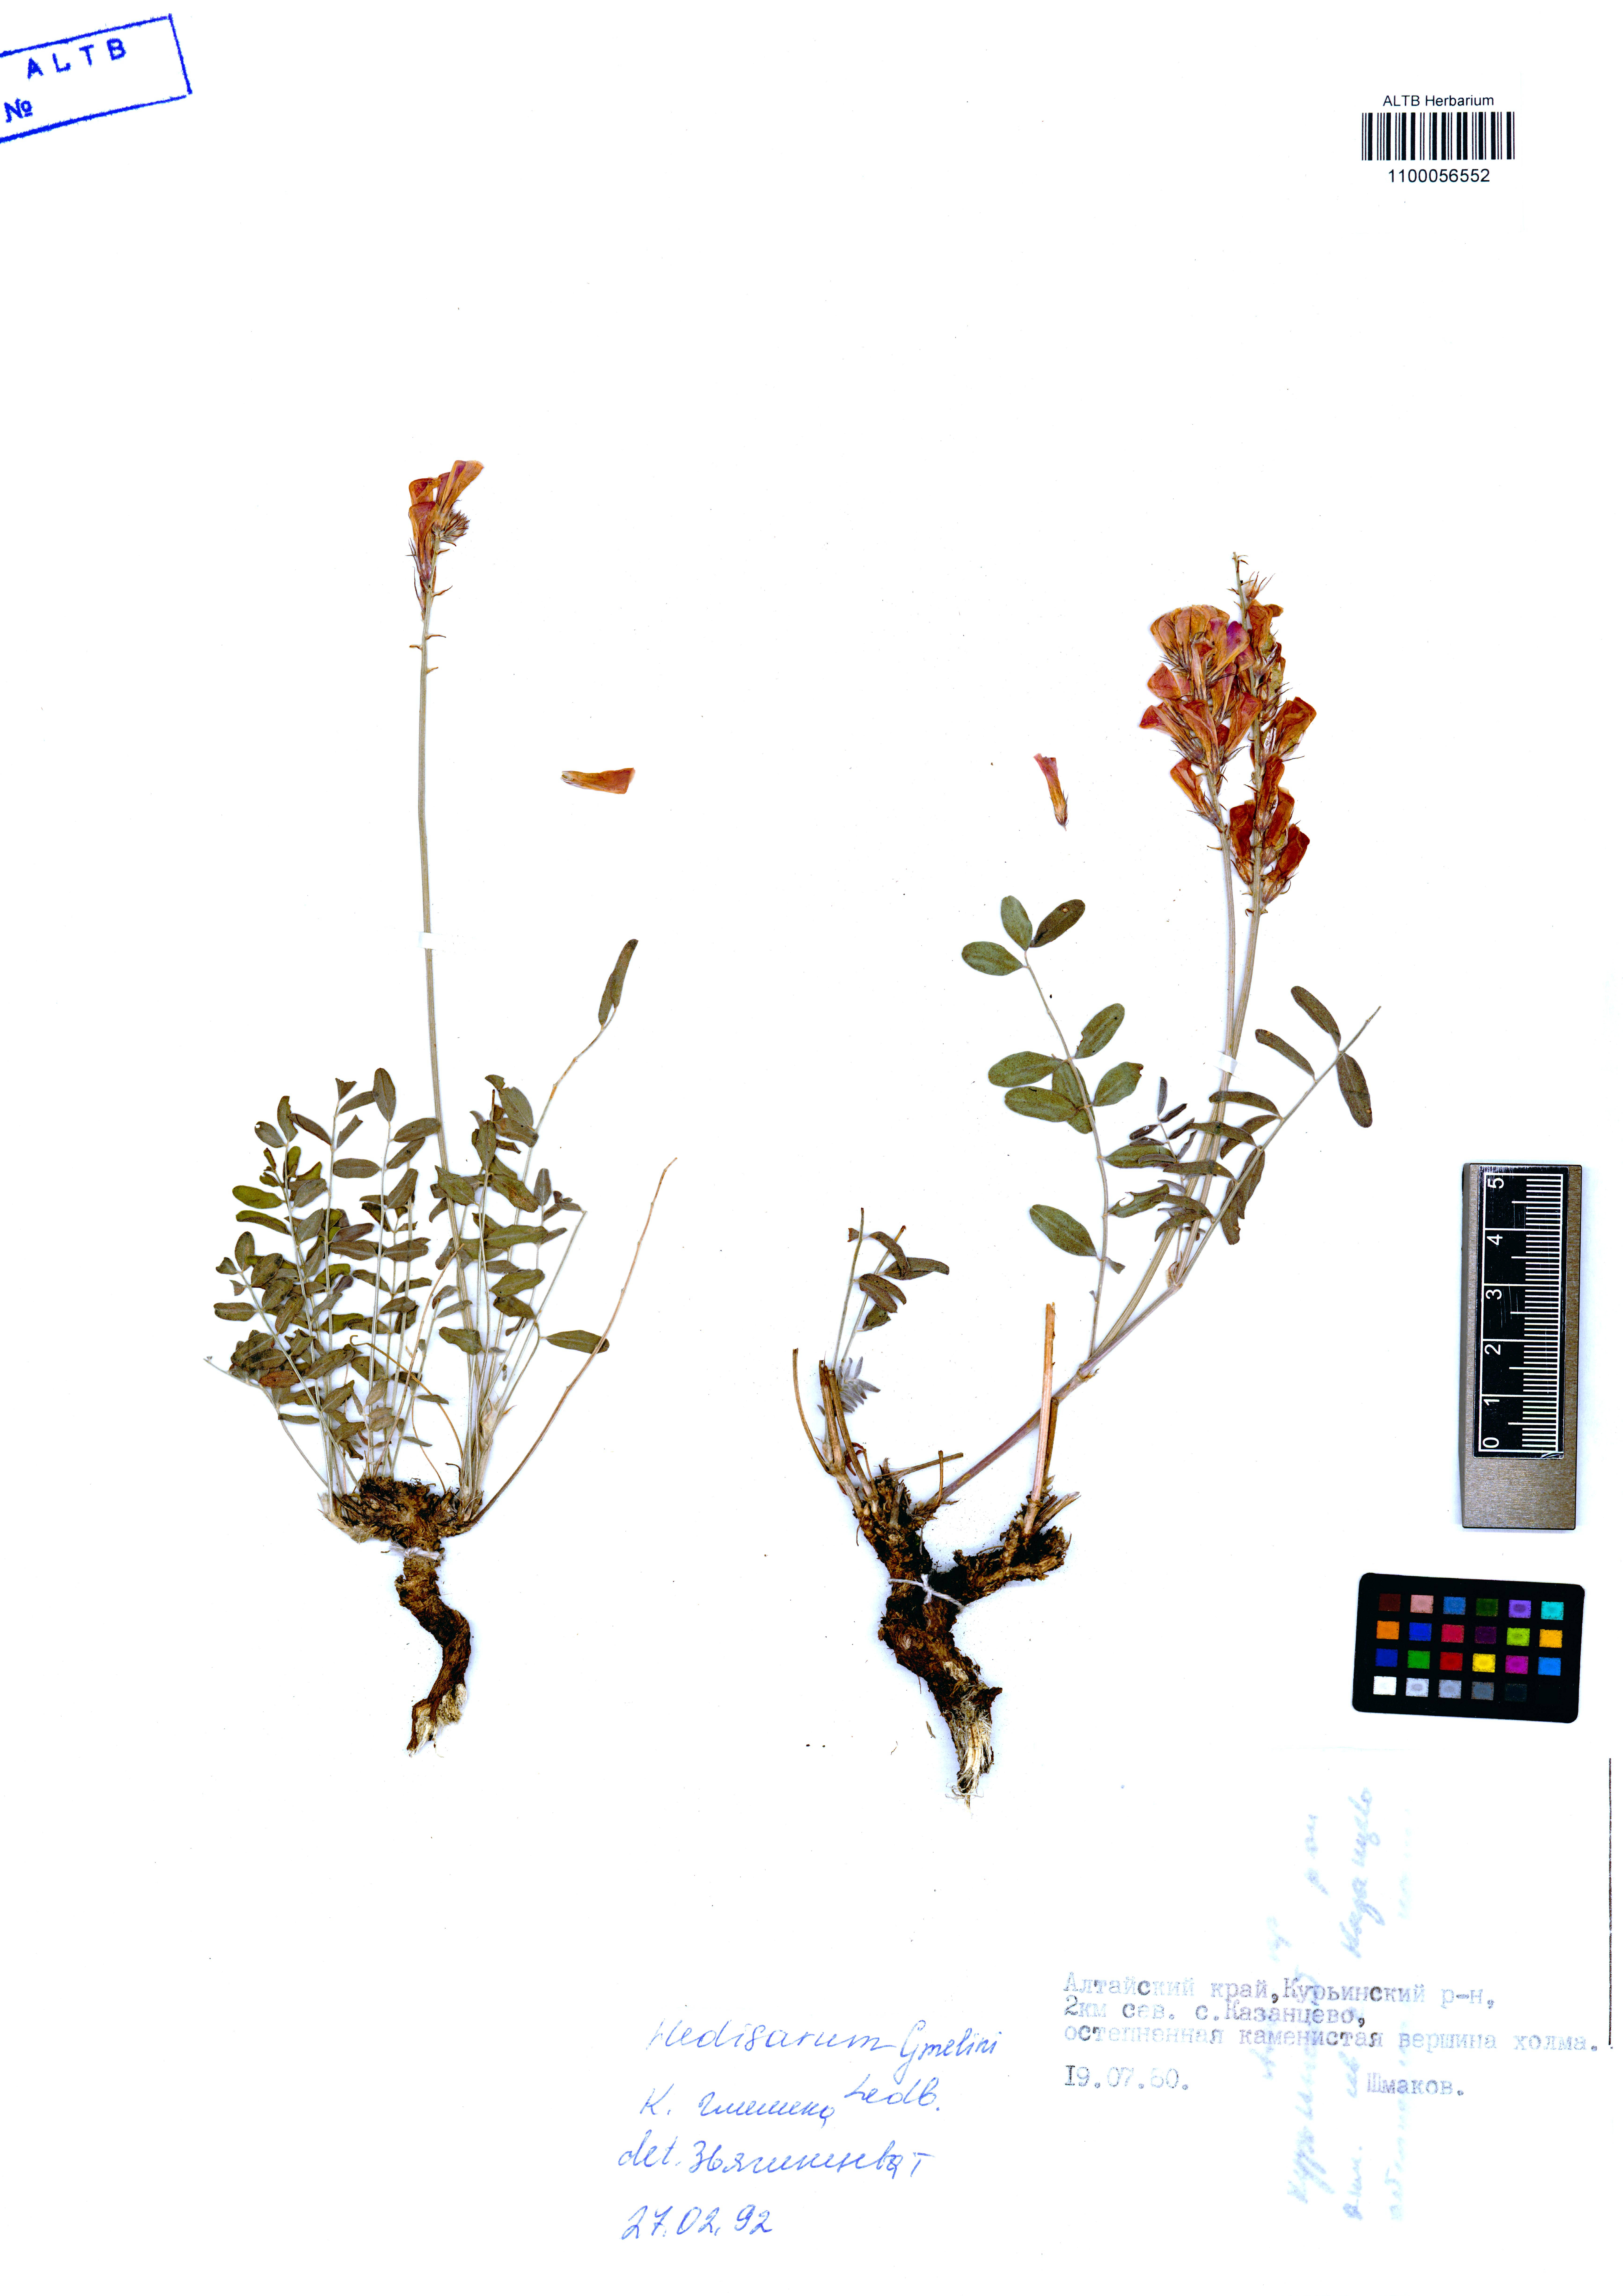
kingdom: Plantae
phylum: Tracheophyta
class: Magnoliopsida
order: Fabales
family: Fabaceae
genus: Hedysarum
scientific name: Hedysarum gmelinii
